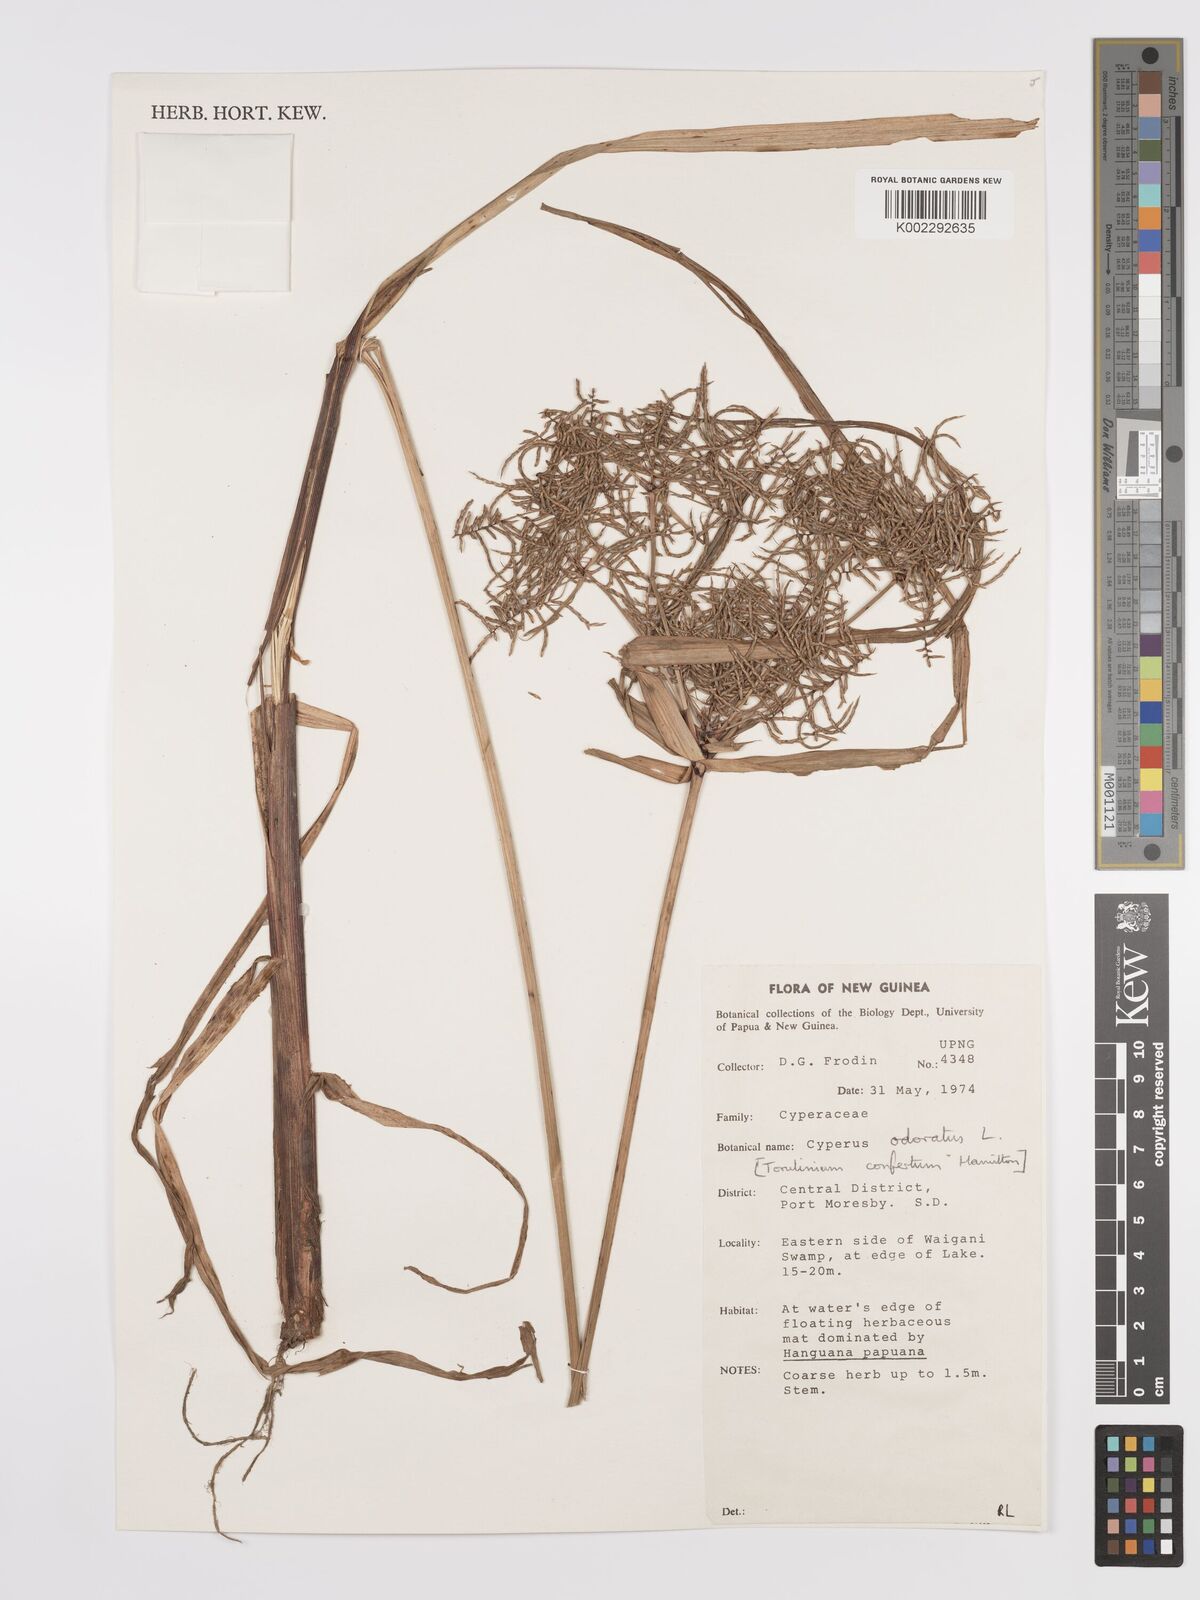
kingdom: Plantae
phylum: Tracheophyta
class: Liliopsida
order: Poales
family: Cyperaceae
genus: Cyperus
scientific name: Cyperus odoratus
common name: Fragrant flatsedge
